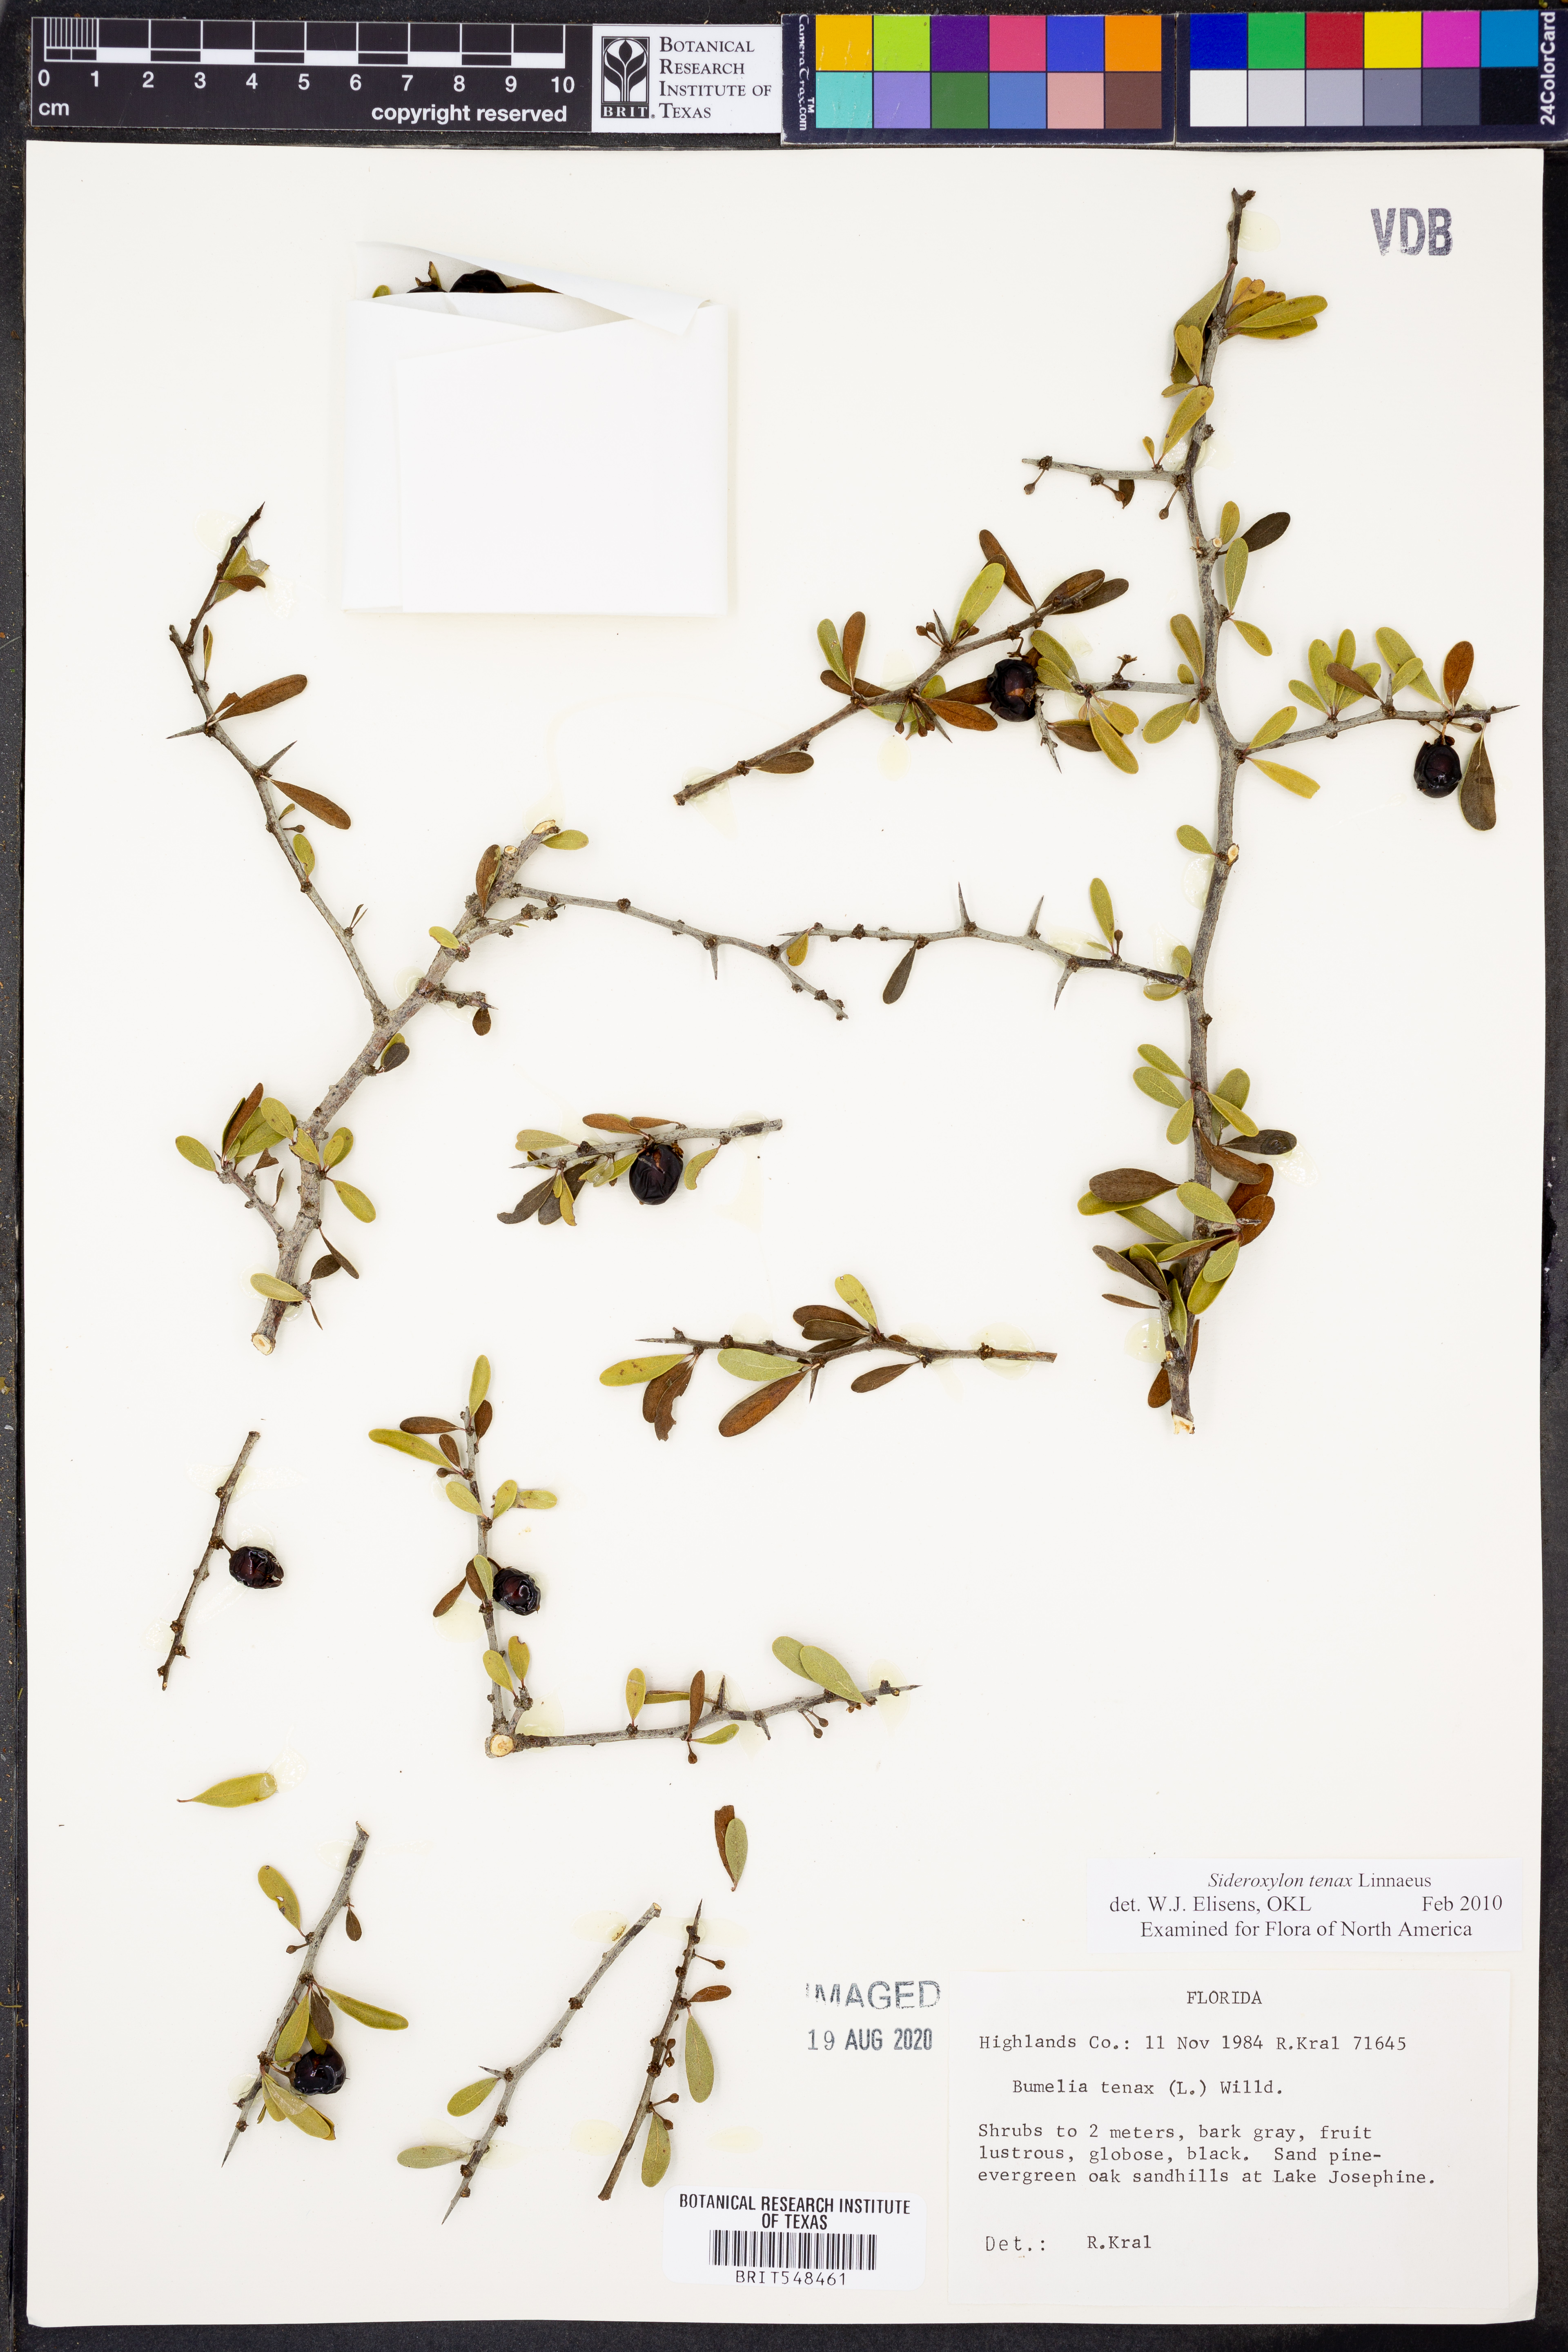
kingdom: Plantae
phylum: Tracheophyta
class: Magnoliopsida
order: Ericales
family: Sapotaceae
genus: Sideroxylon
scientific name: Sideroxylon tenax
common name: Tough-buckthorn
